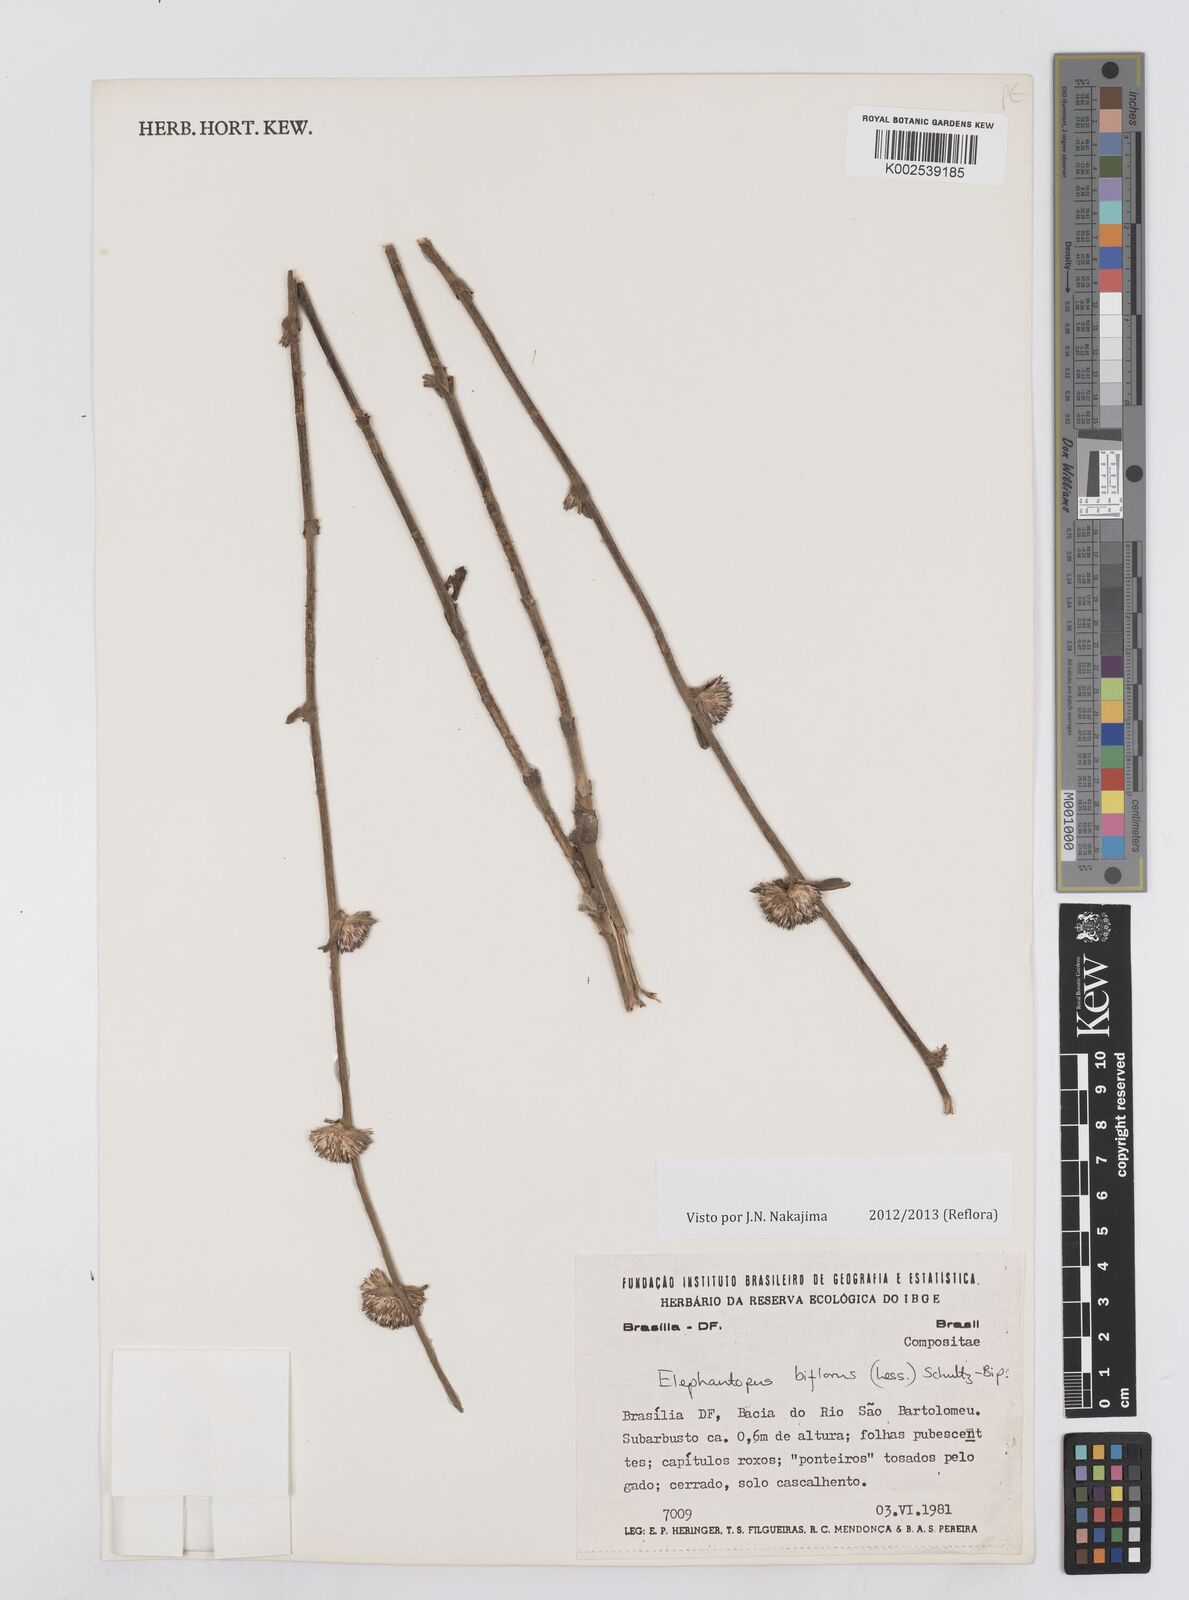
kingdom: Plantae
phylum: Tracheophyta
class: Magnoliopsida
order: Asterales
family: Asteraceae
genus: Elephantopus
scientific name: Elephantopus biflorus
